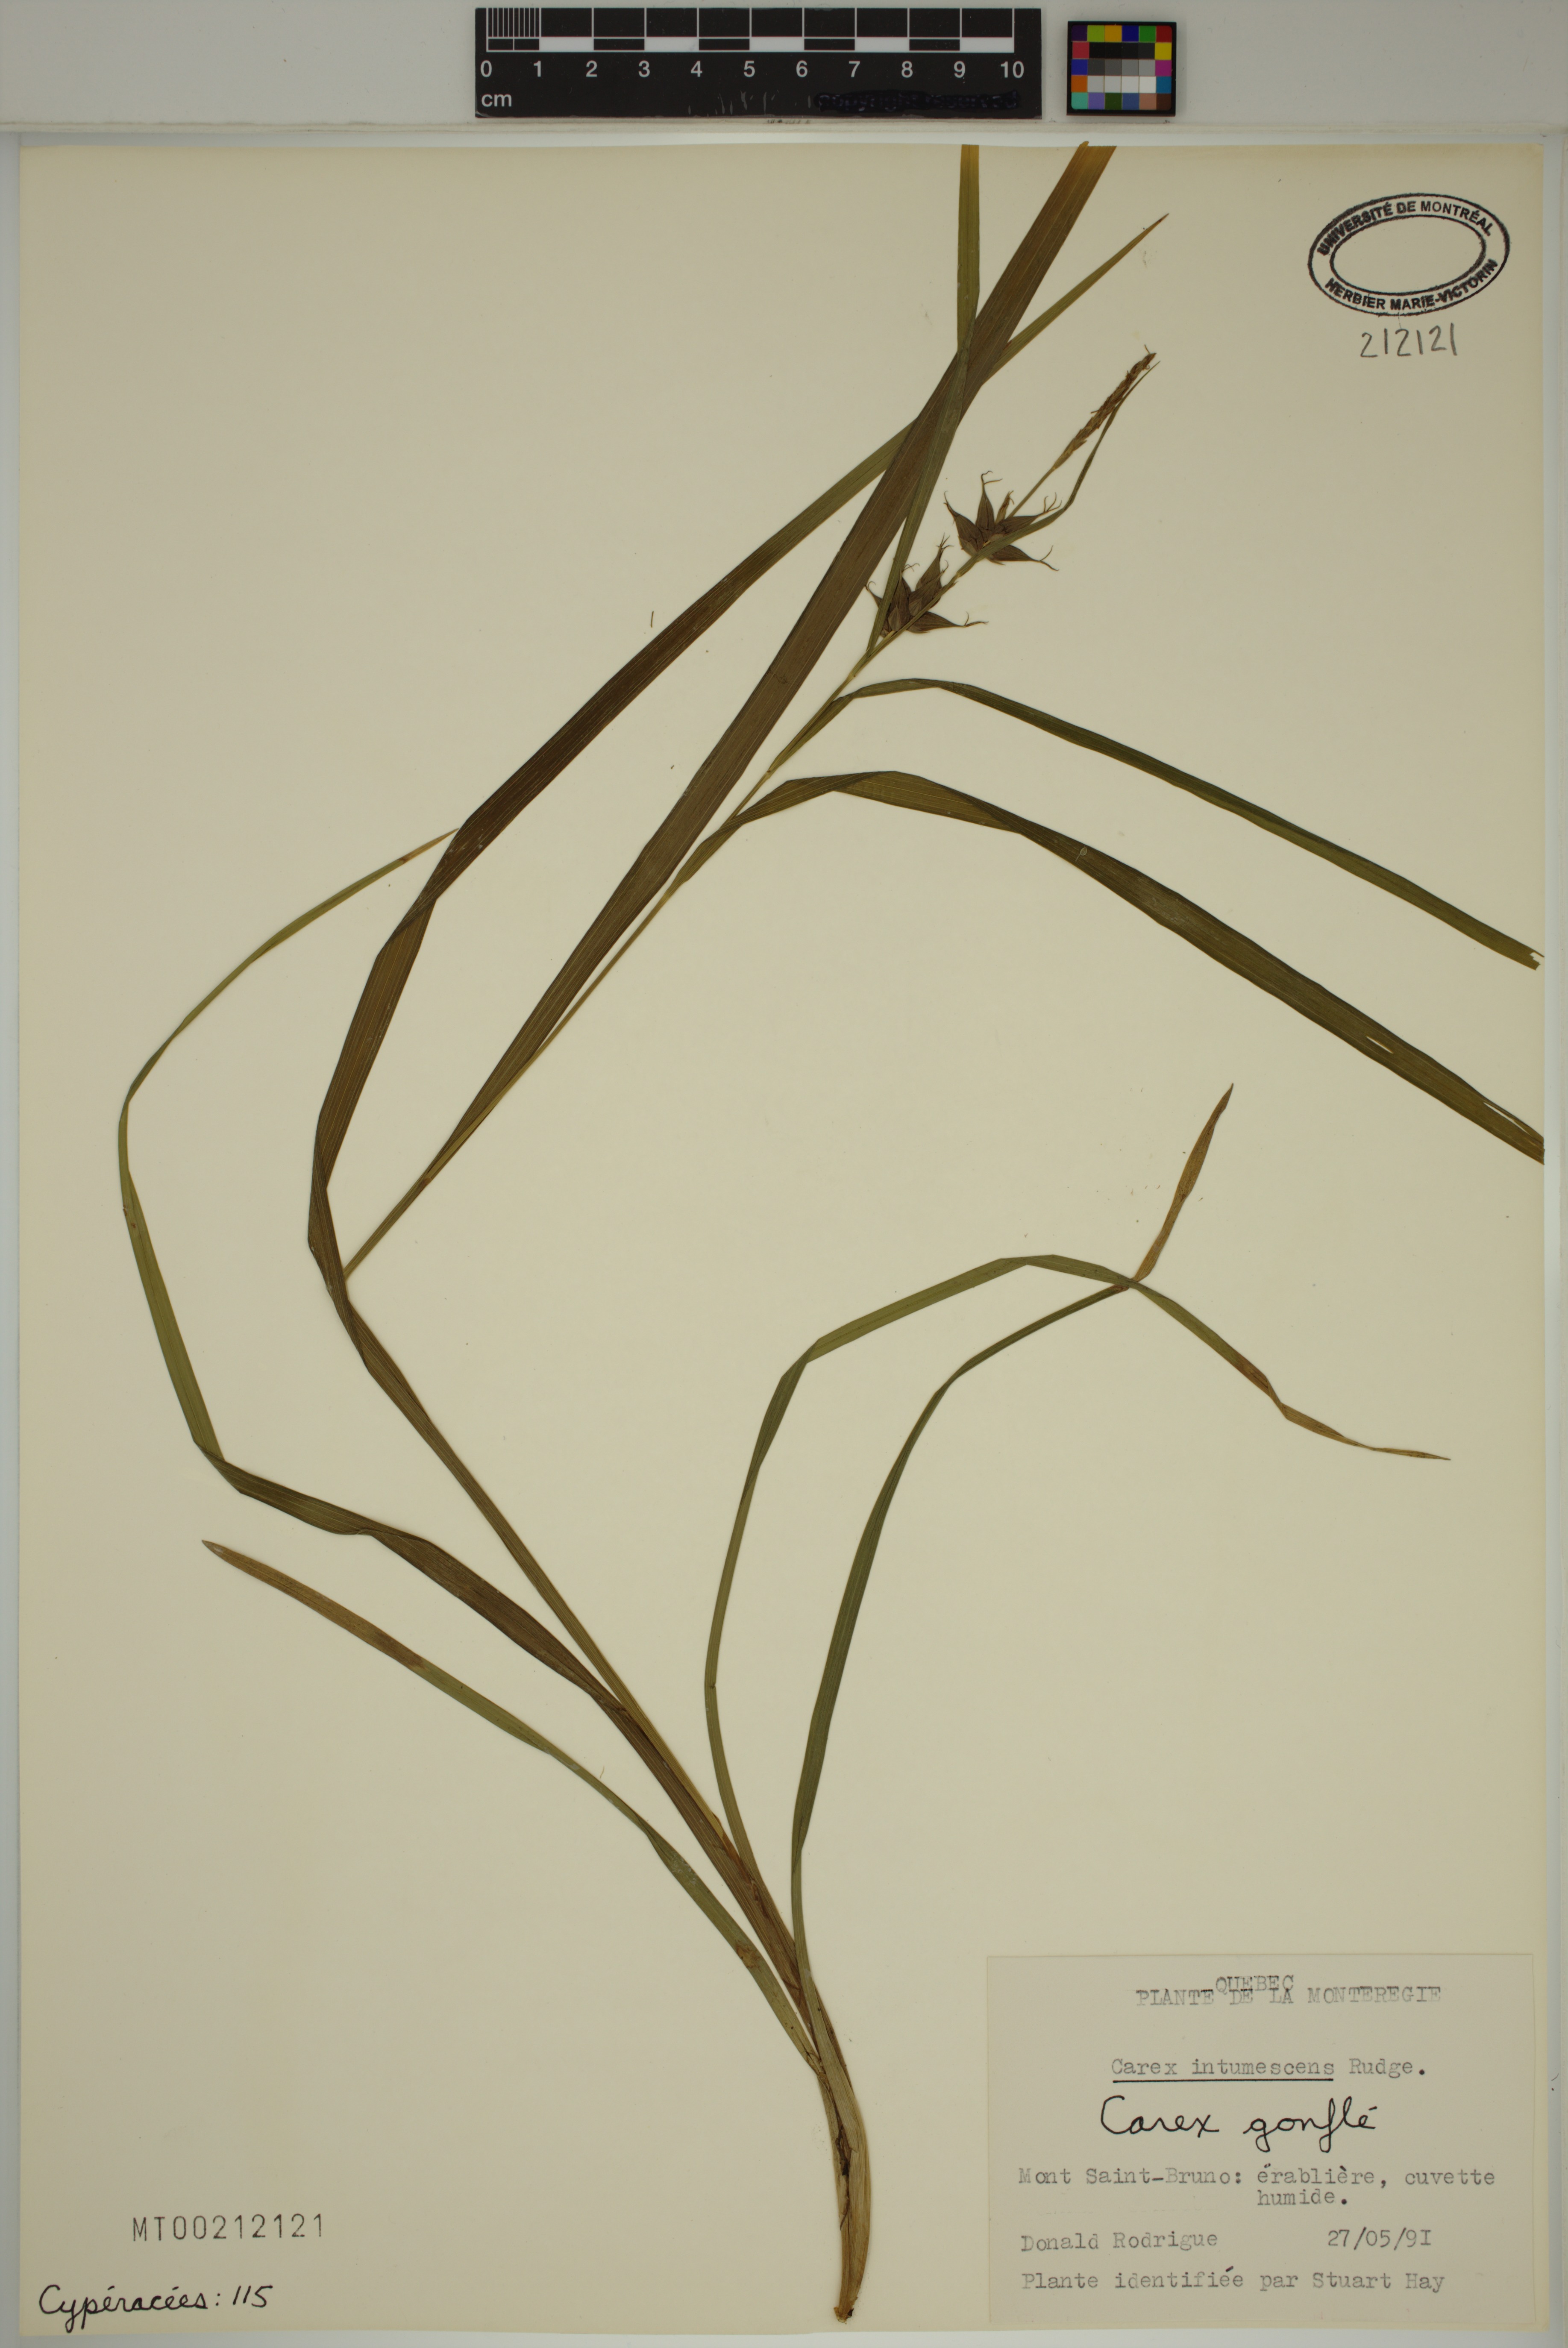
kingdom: Plantae
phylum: Tracheophyta
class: Liliopsida
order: Poales
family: Cyperaceae
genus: Carex
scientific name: Carex intumescens
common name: Greater bladder sedge
